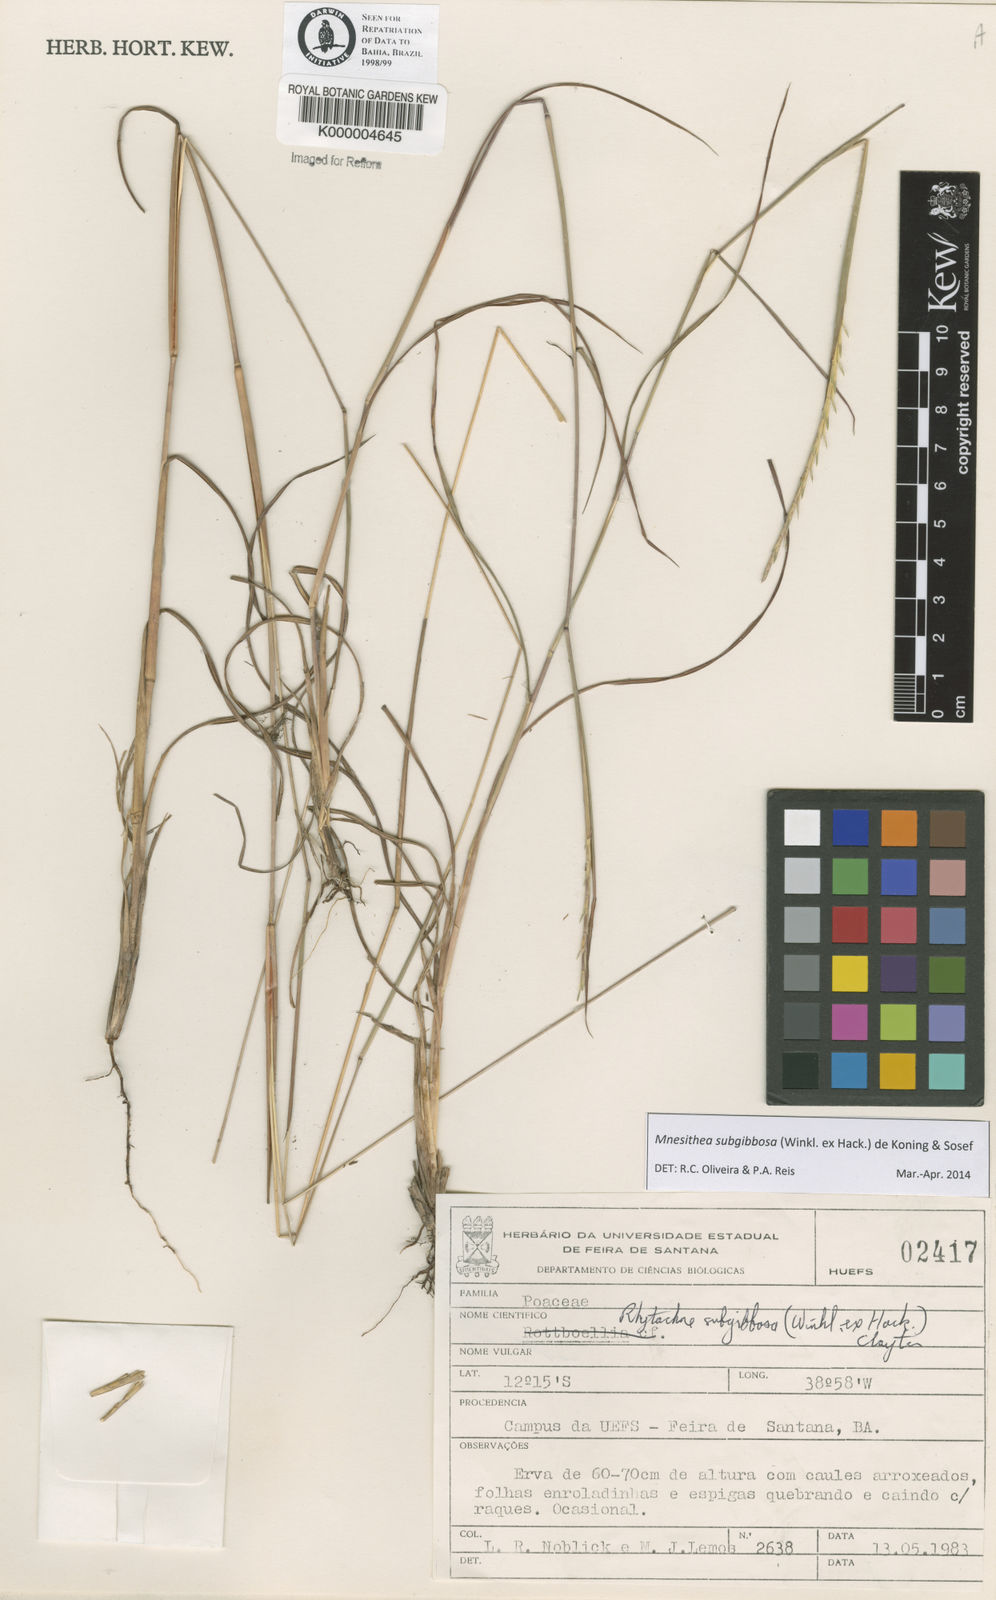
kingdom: Plantae
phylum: Tracheophyta
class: Liliopsida
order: Poales
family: Poaceae
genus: Rhytachne
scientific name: Rhytachne subgibbosa
